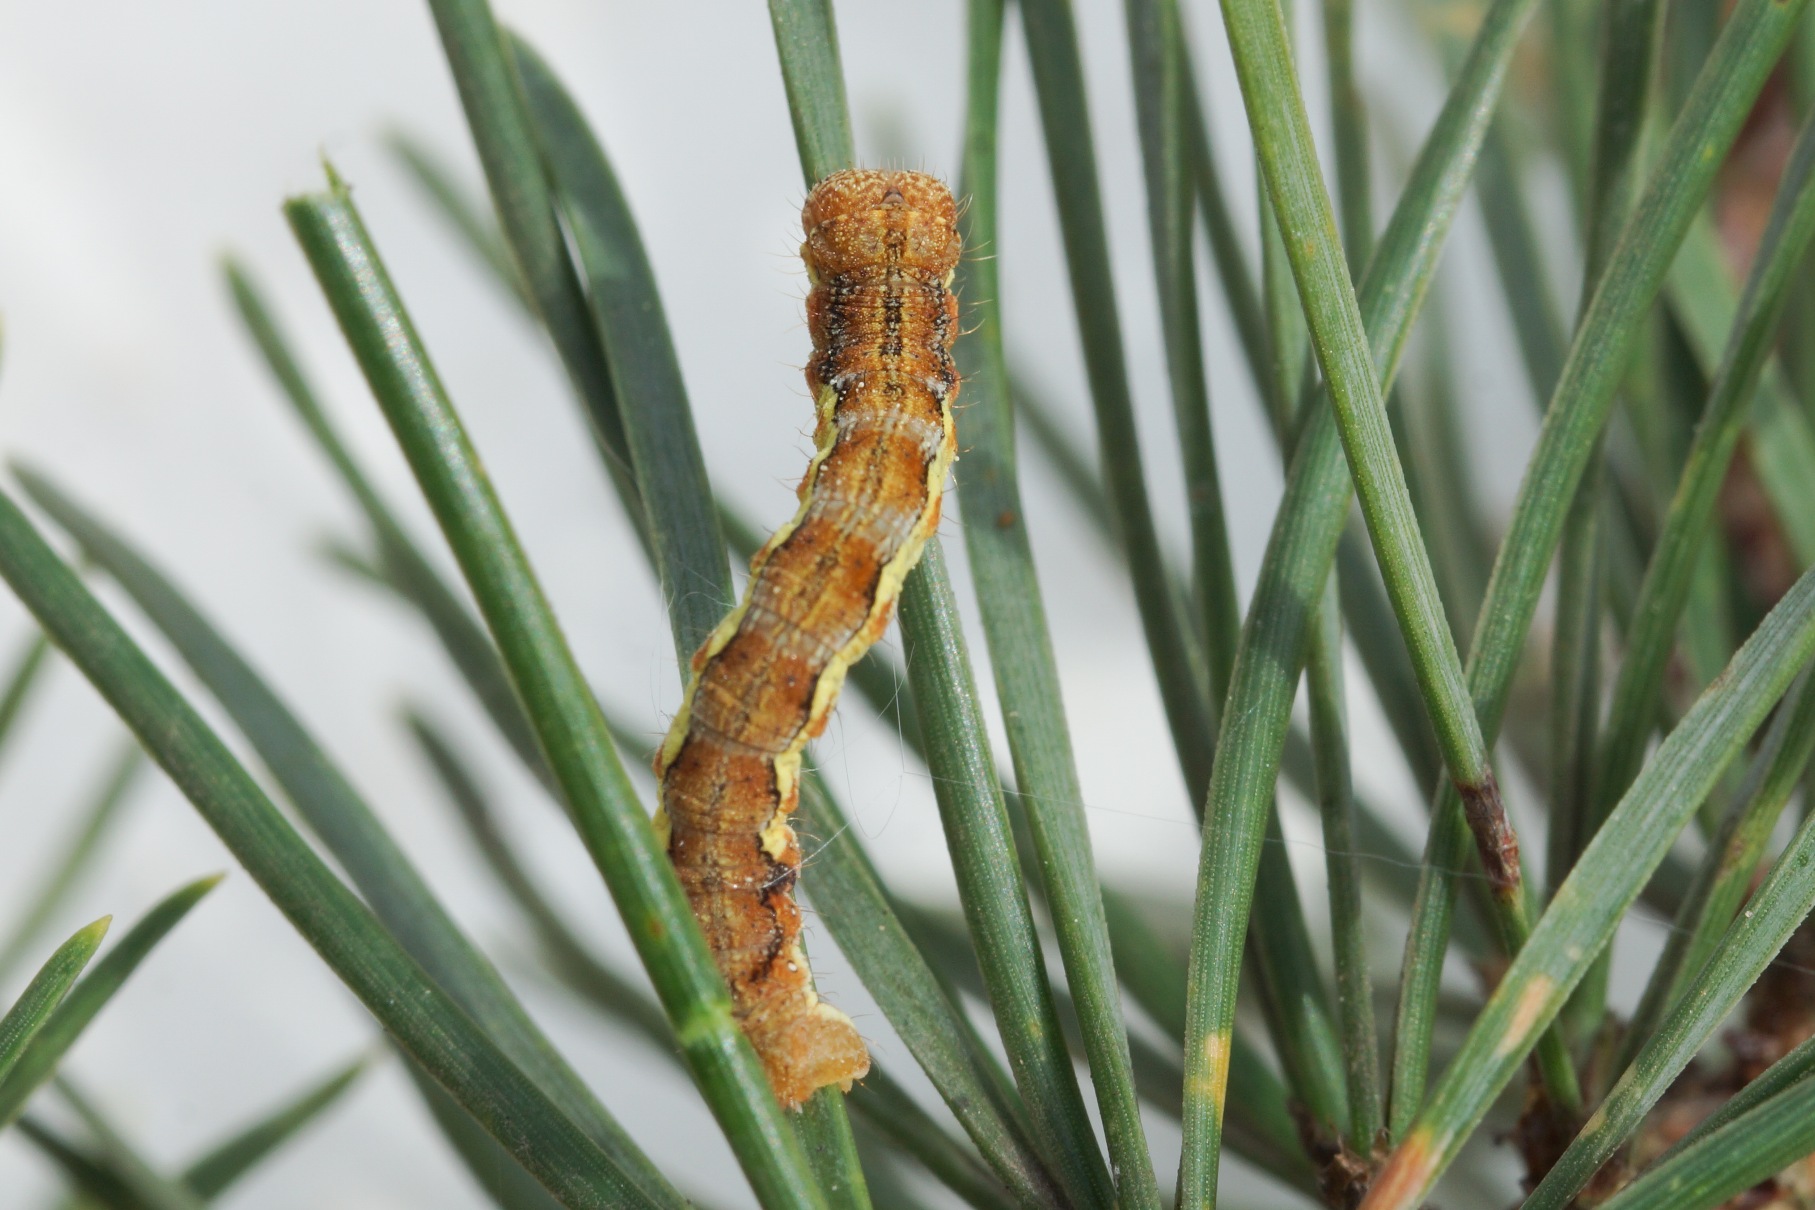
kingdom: Animalia
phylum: Arthropoda
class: Insecta
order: Lepidoptera
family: Geometridae
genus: Erannis
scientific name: Erannis defoliaria
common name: Stor frostmåler
